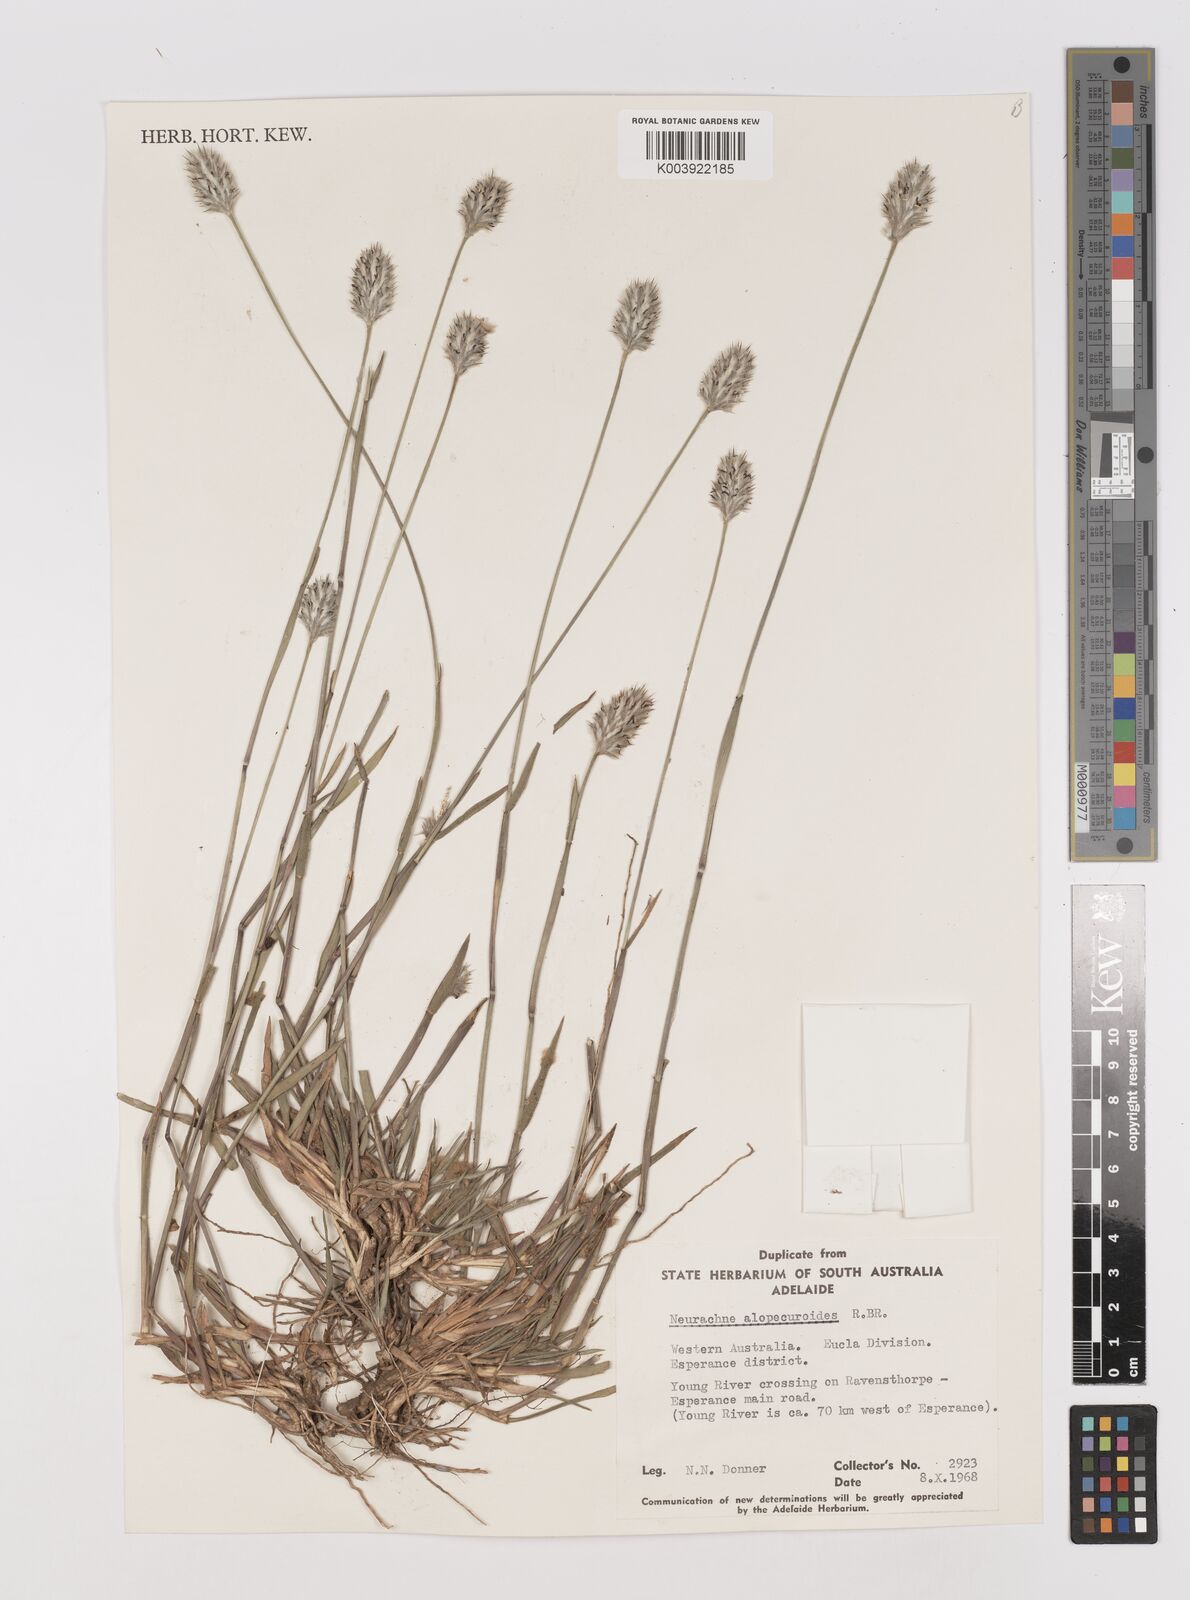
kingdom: Plantae
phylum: Tracheophyta
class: Liliopsida
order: Poales
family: Poaceae
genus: Neurachne
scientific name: Neurachne alopecuroidea
